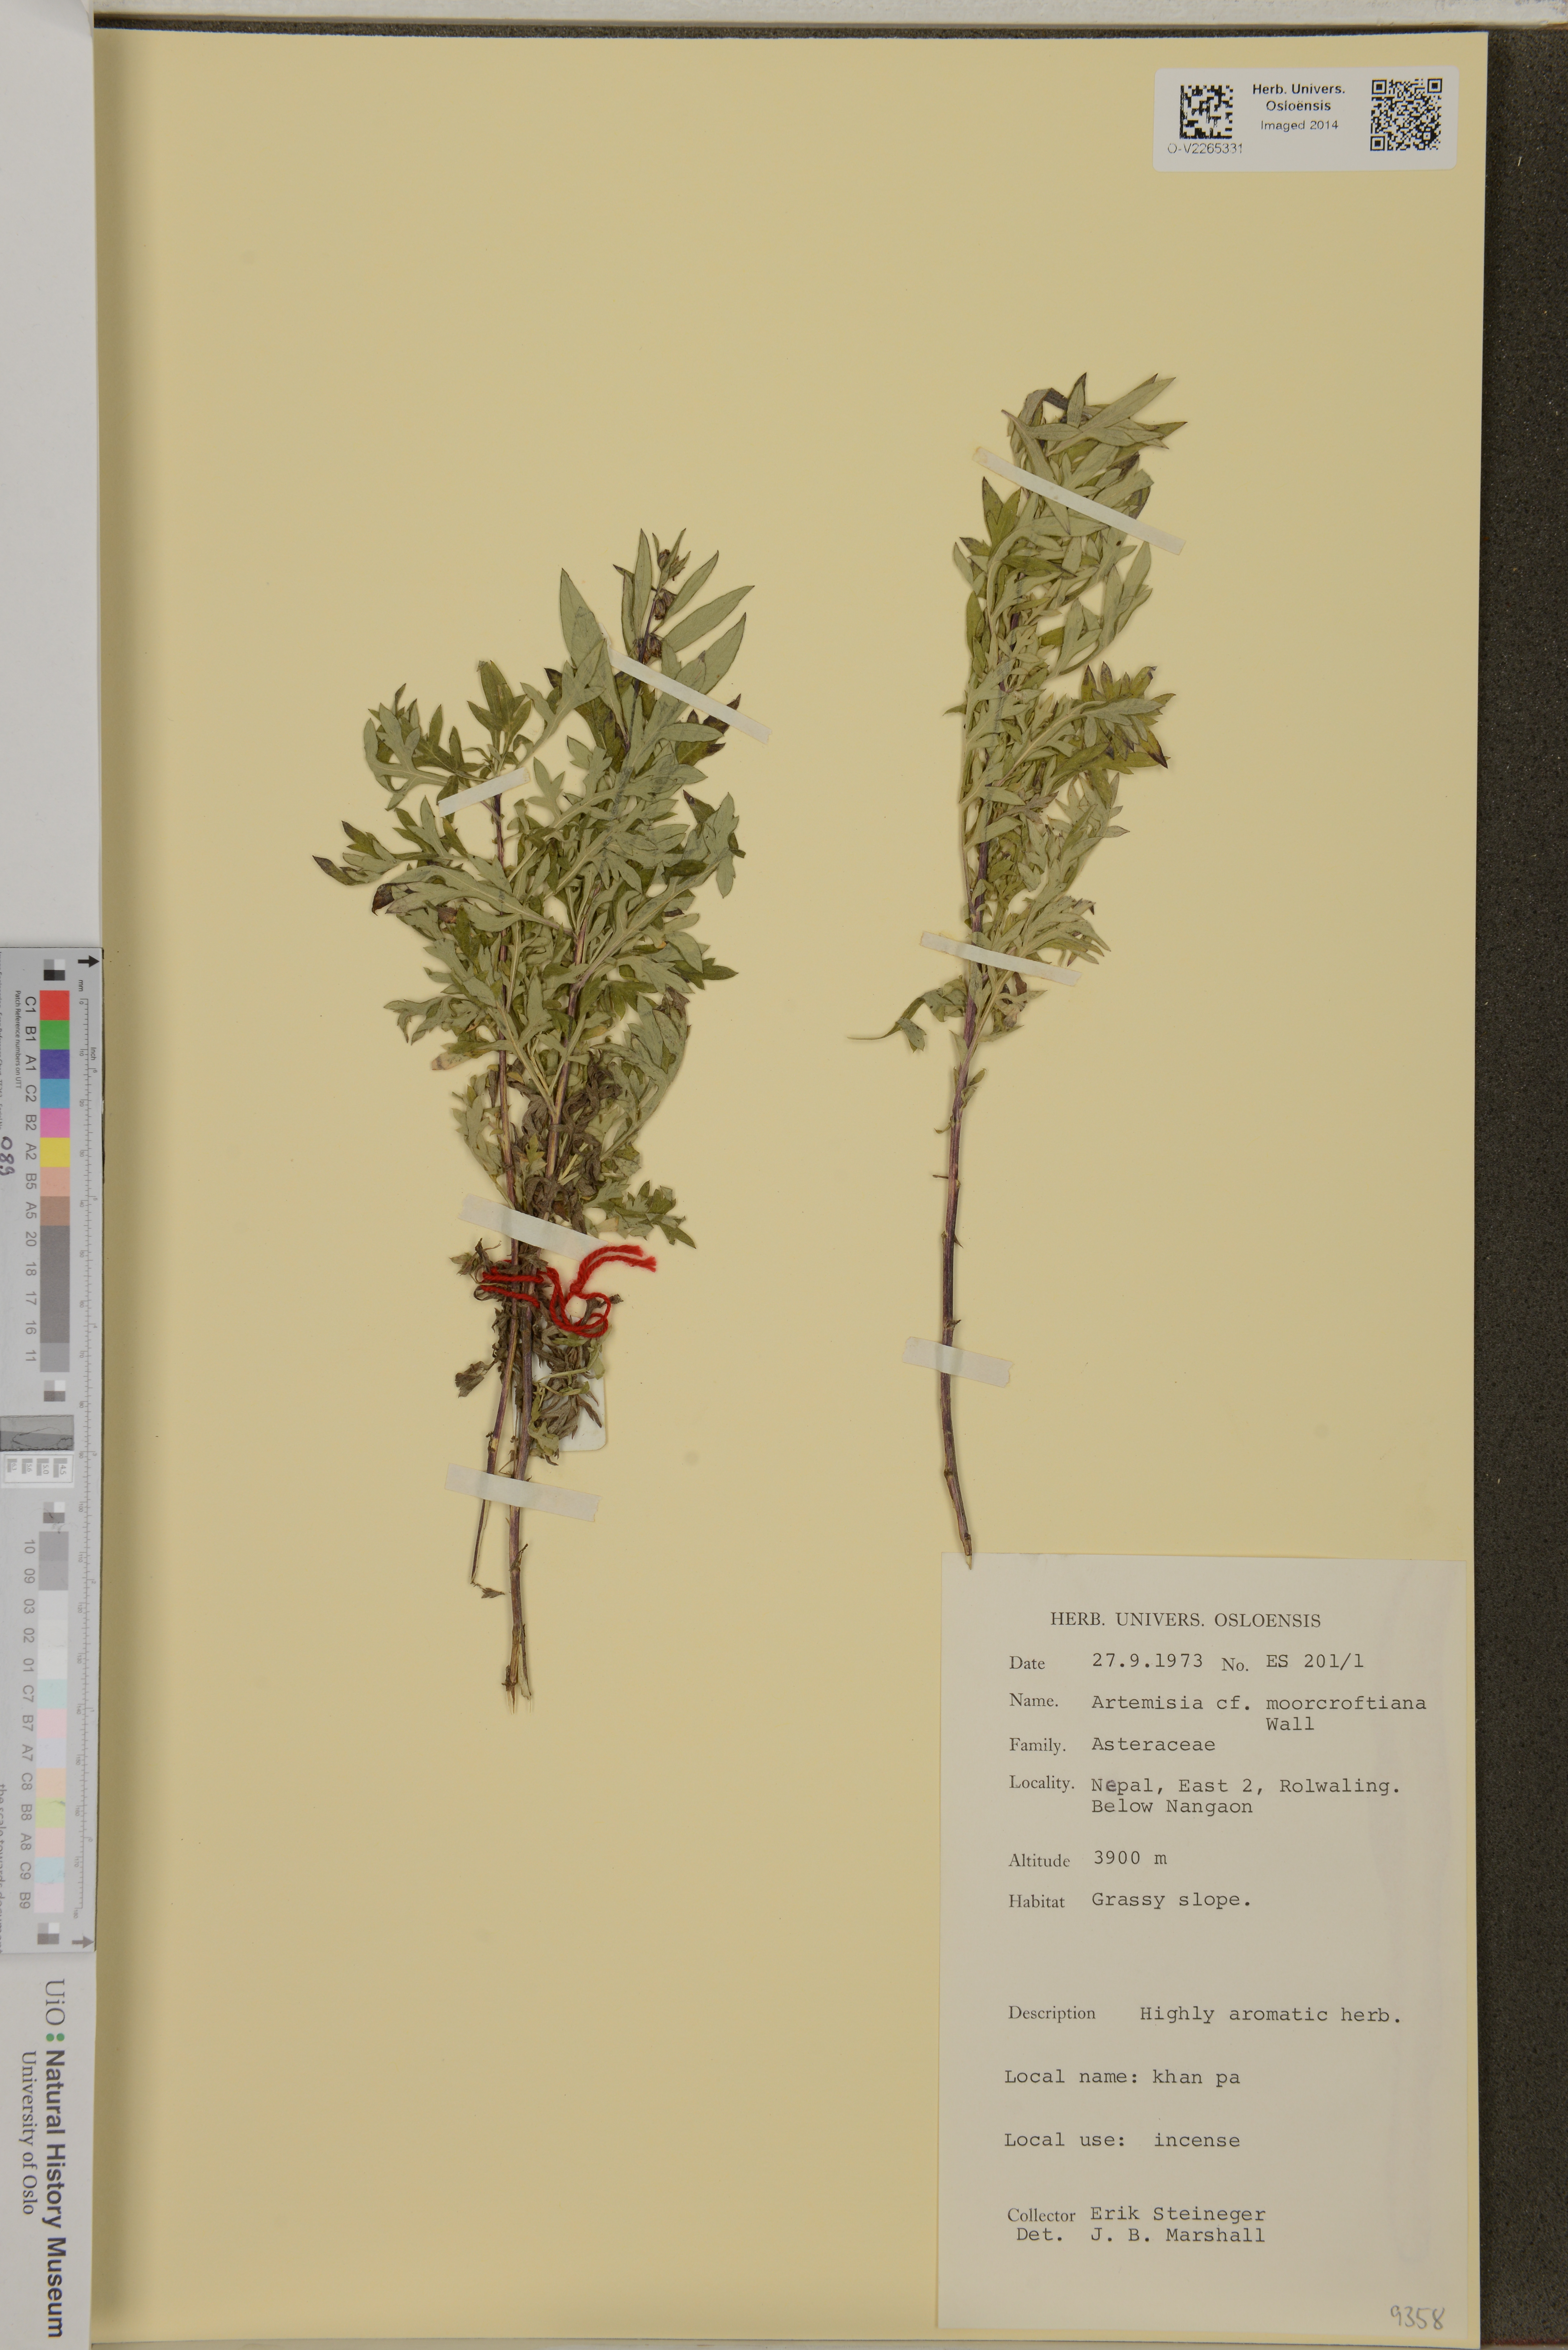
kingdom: Plantae
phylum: Tracheophyta
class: Magnoliopsida
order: Asterales
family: Asteraceae
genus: Artemisia
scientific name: Artemisia moorcroftiana
